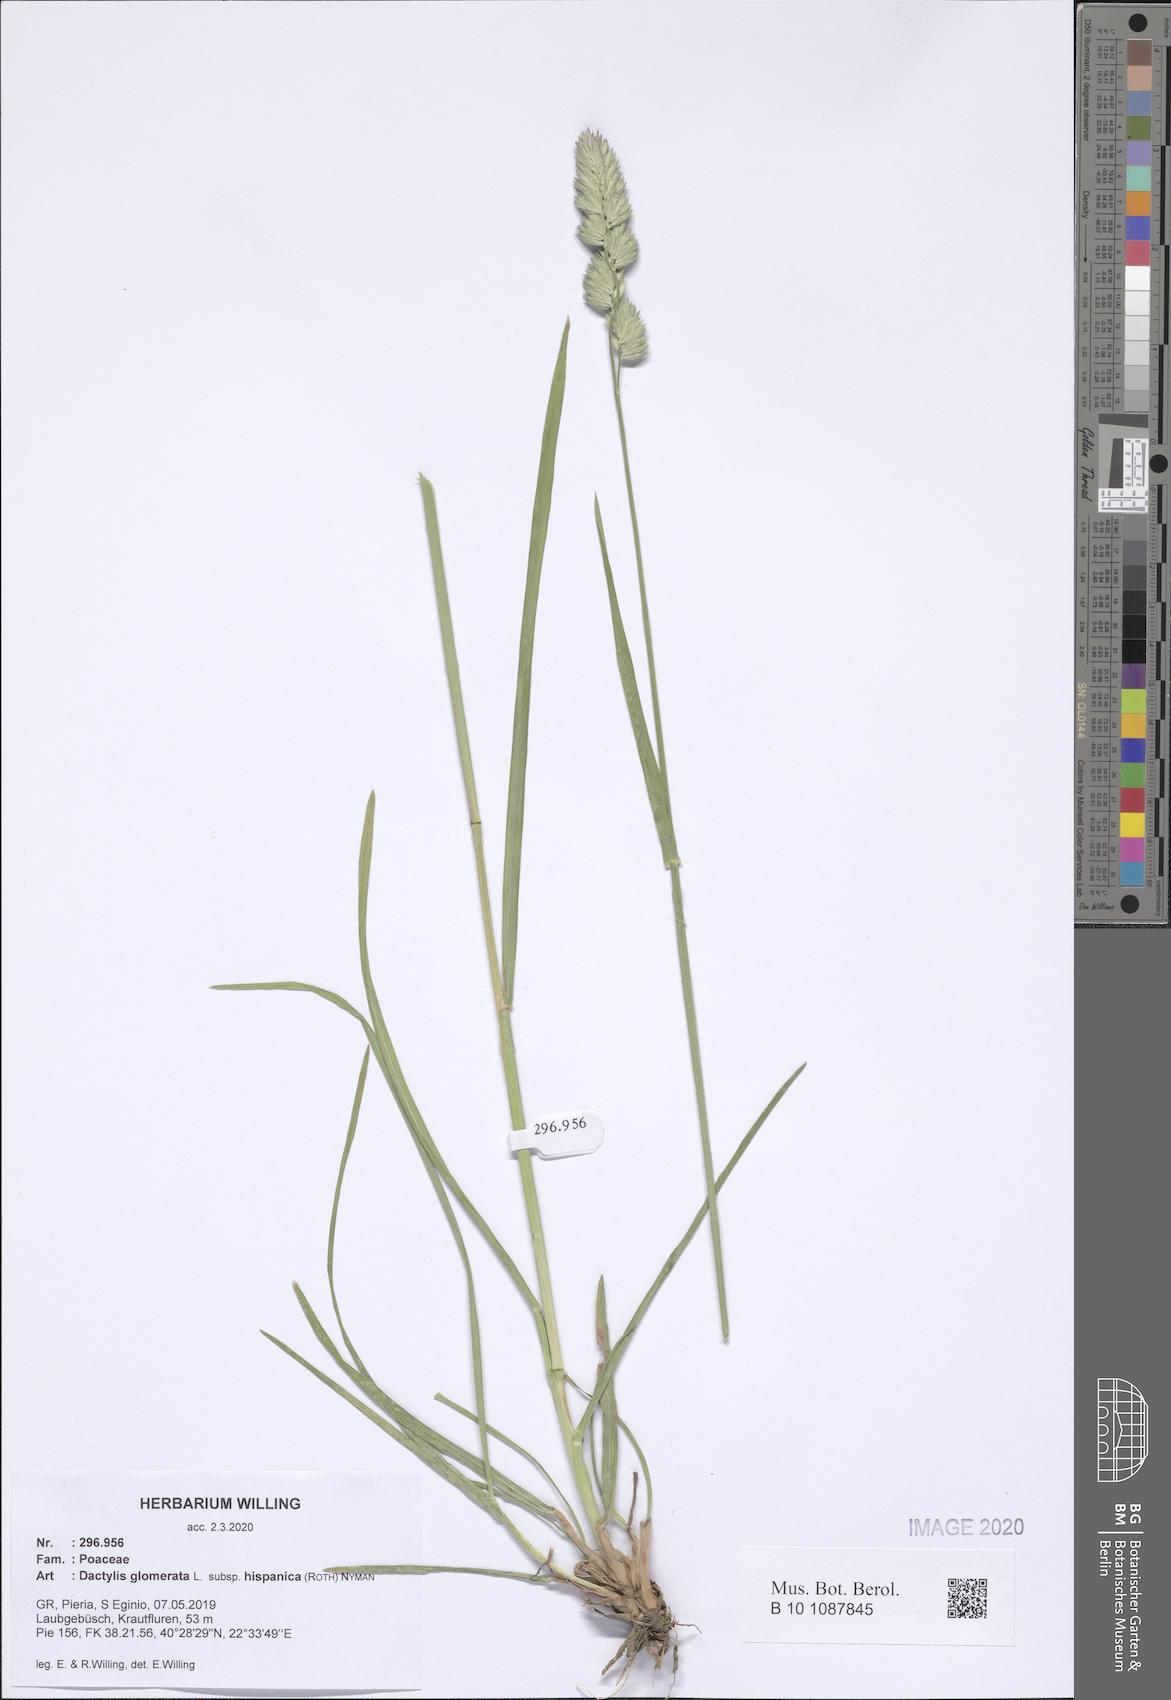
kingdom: Plantae
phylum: Tracheophyta
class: Liliopsida
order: Poales
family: Poaceae
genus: Dactylis
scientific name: Dactylis glomerata
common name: Orchardgrass
